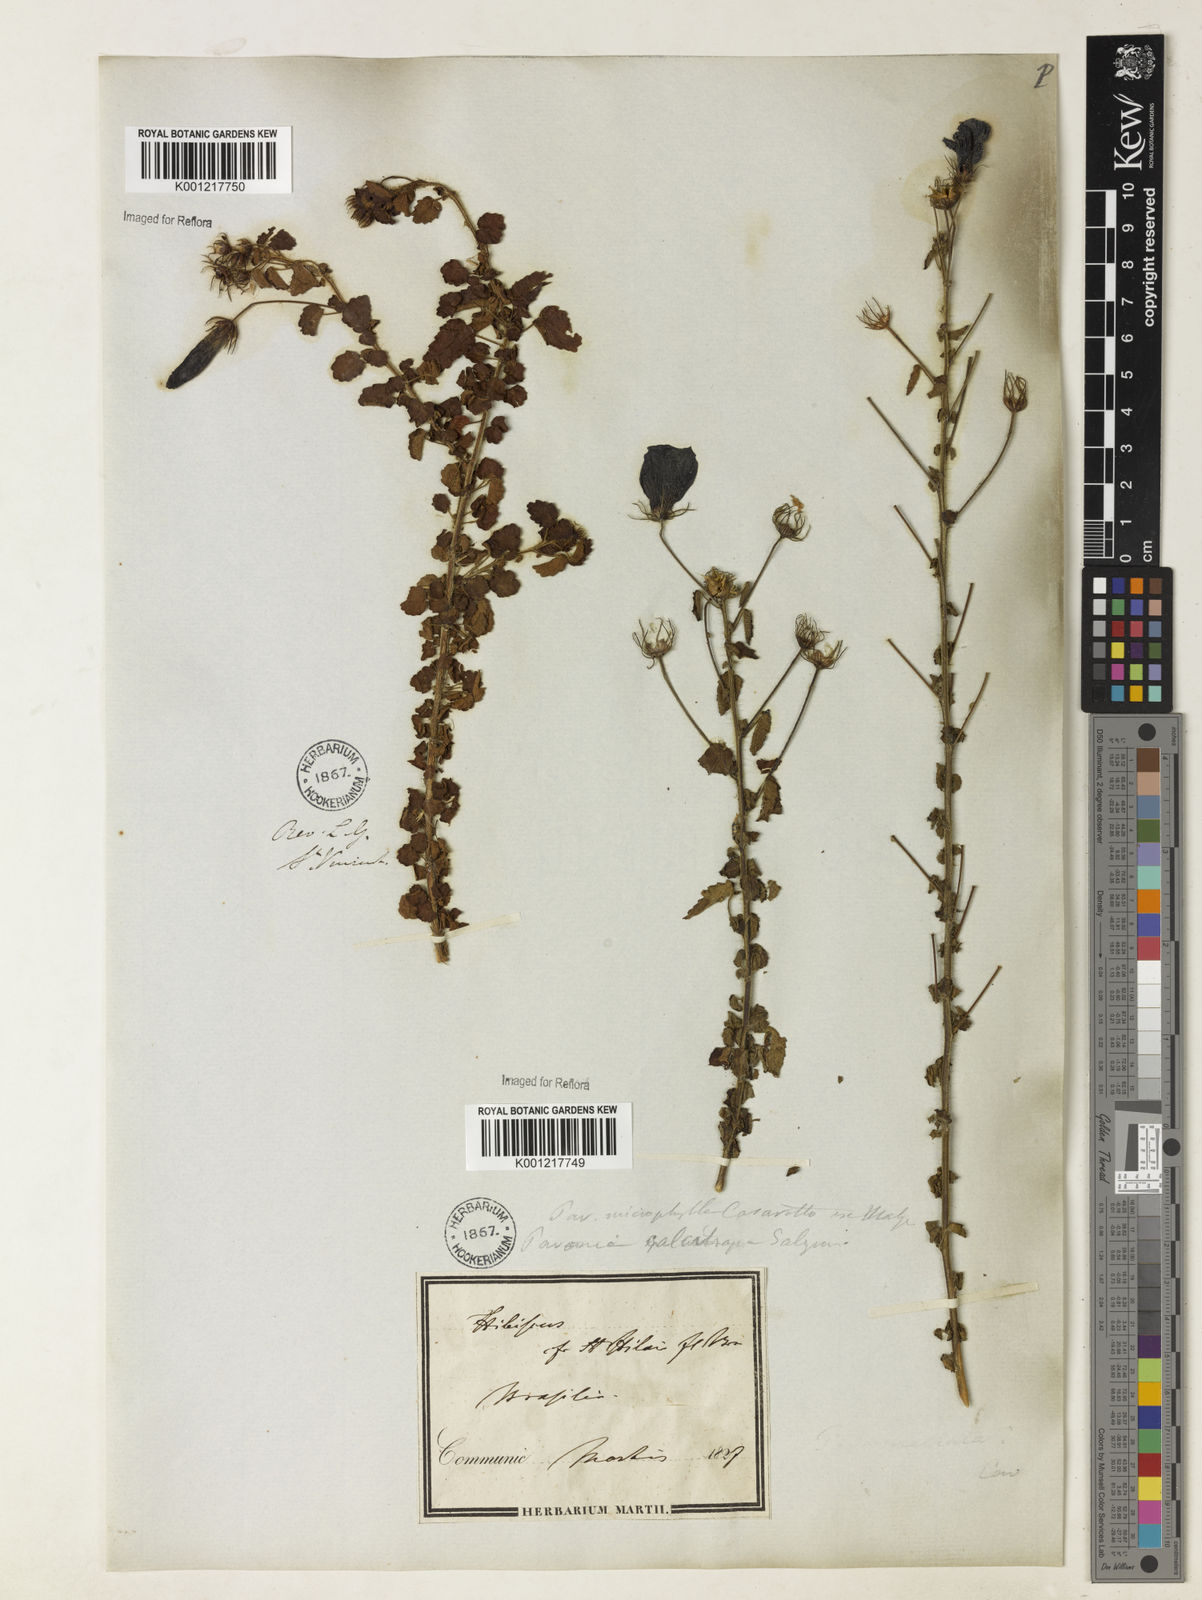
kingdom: Plantae
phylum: Tracheophyta
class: Magnoliopsida
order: Malvales
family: Malvaceae
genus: Pavonia
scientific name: Pavonia martii
